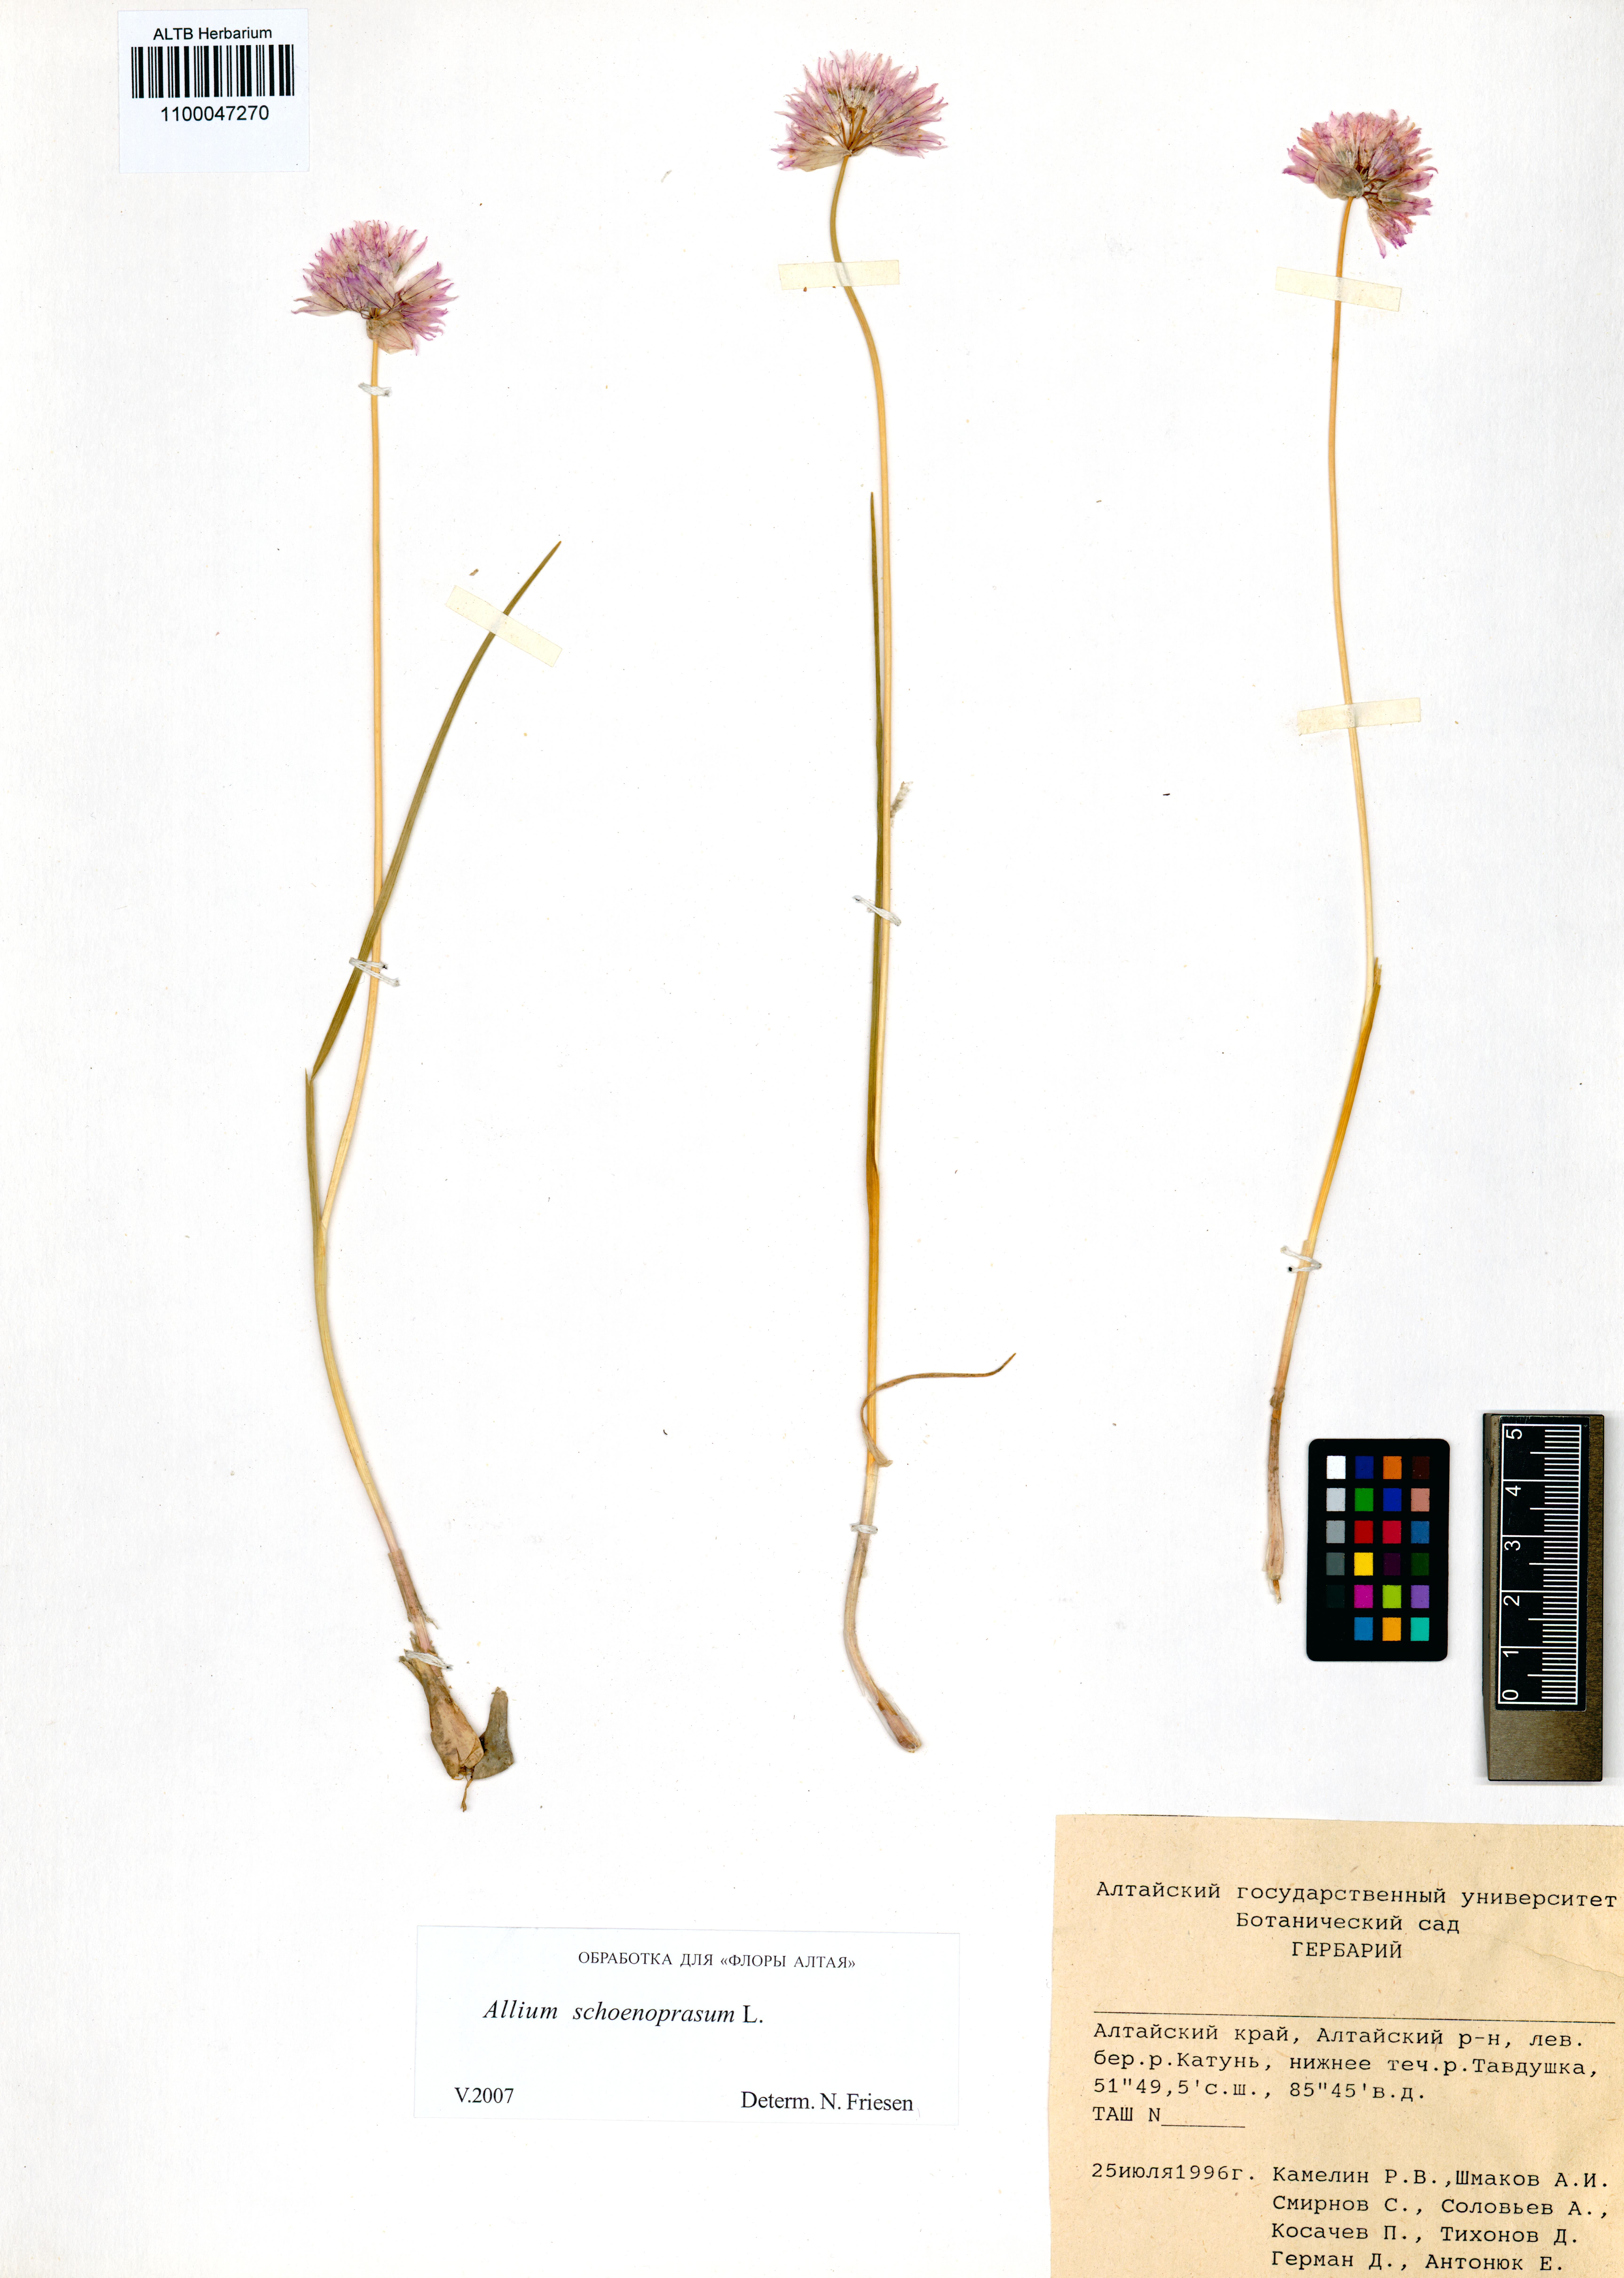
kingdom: Plantae
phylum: Tracheophyta
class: Liliopsida
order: Asparagales
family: Amaryllidaceae
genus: Allium
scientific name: Allium schoenoprasum
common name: Chives
